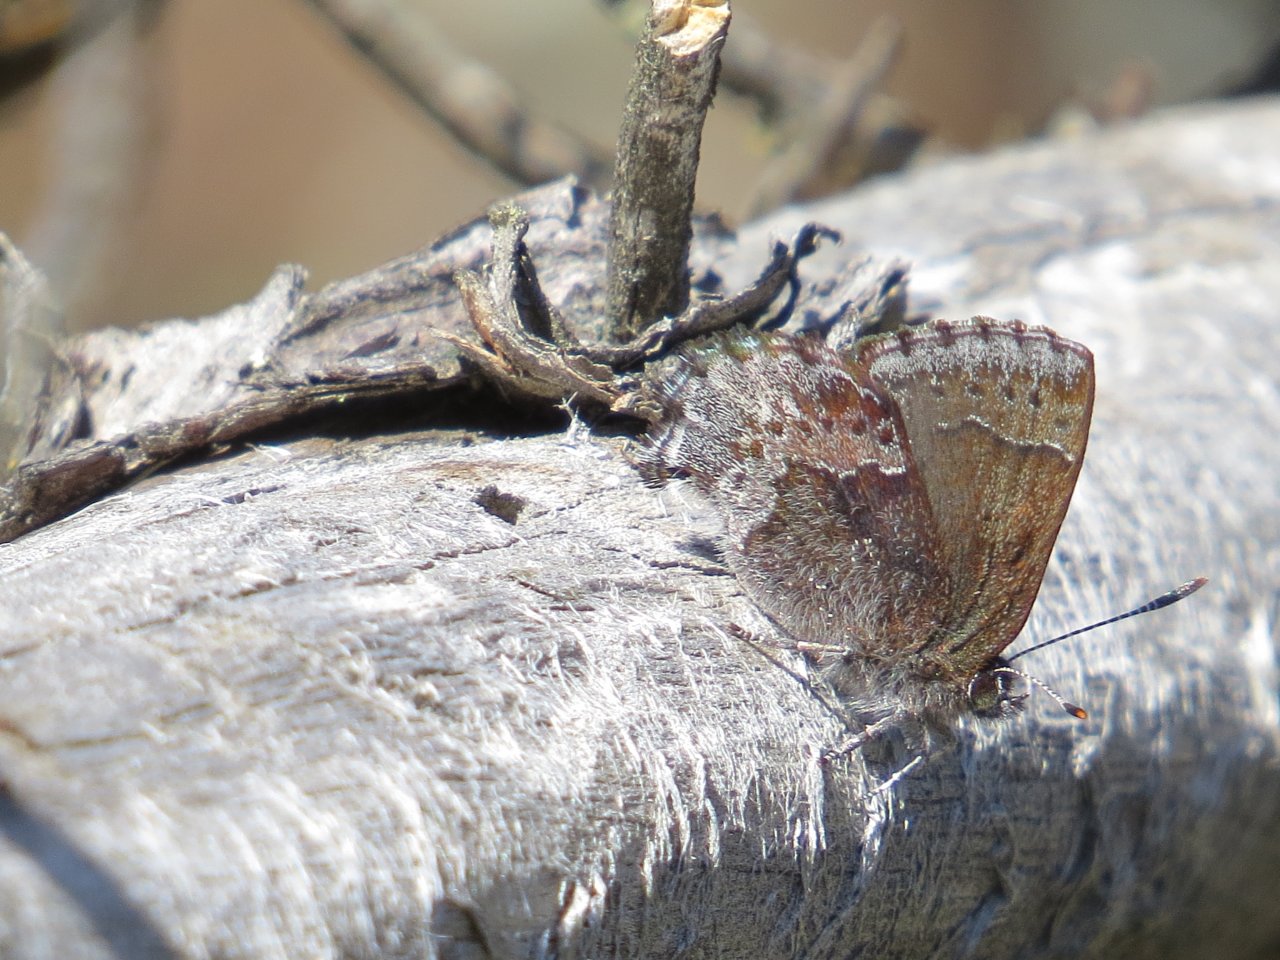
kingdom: Animalia
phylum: Arthropoda
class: Insecta
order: Lepidoptera
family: Lycaenidae
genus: Callophrys
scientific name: Callophrys polios
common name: Hoary Elfin
